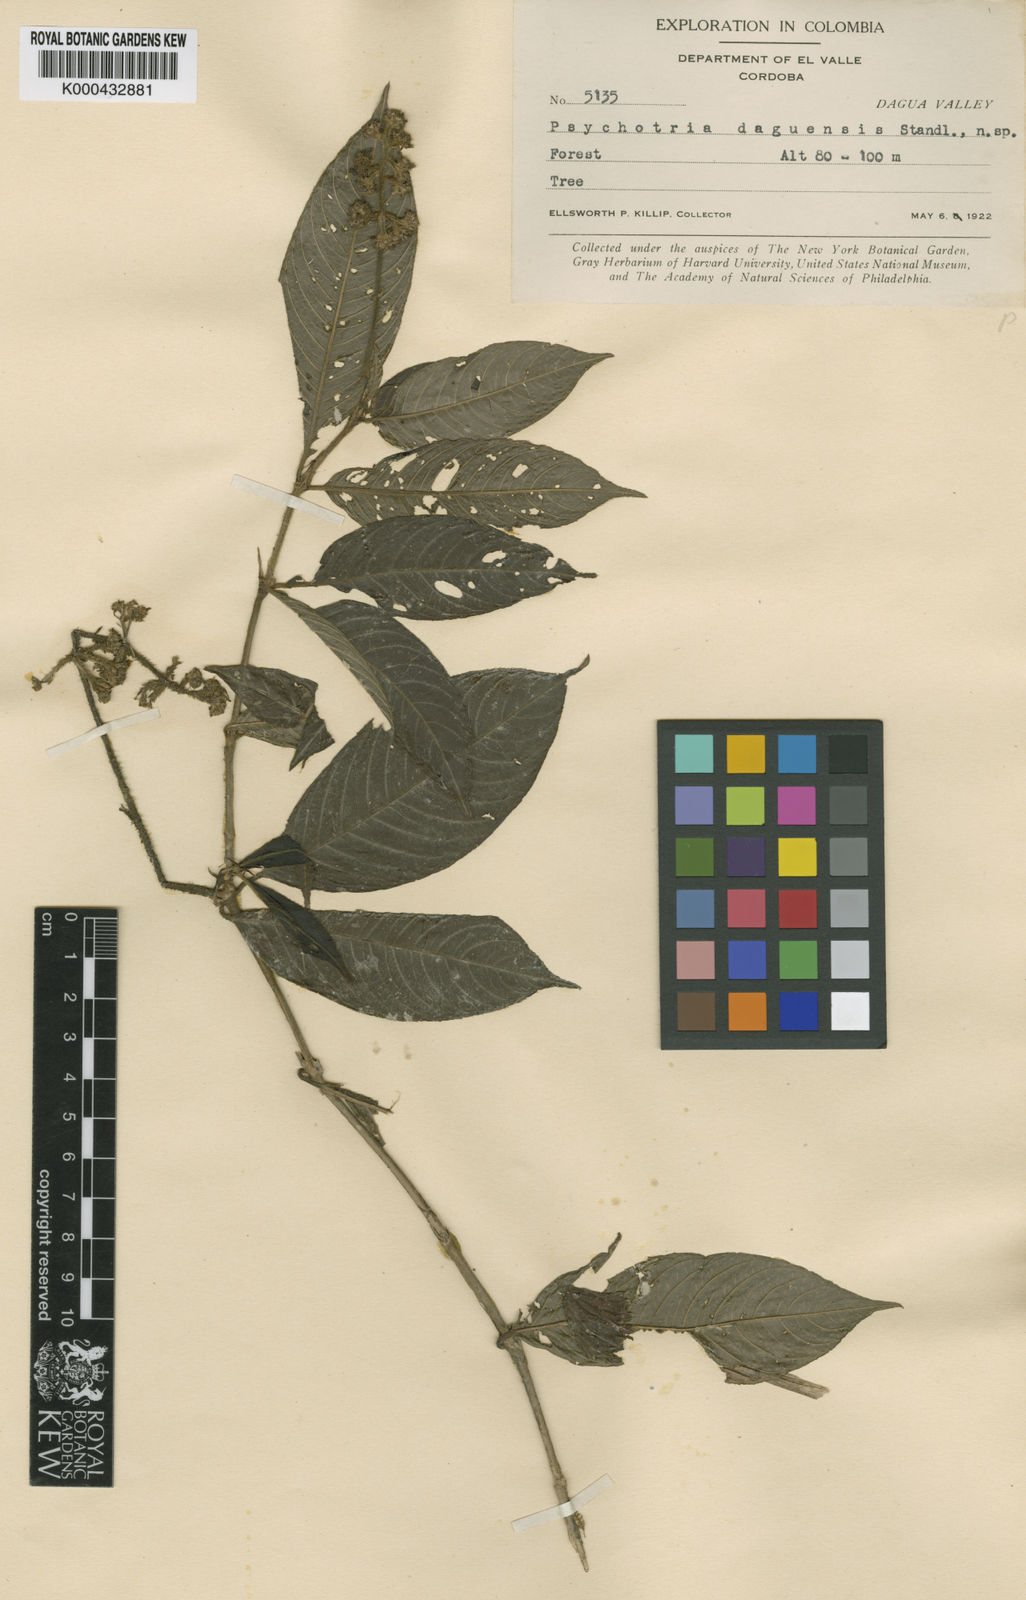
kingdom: Plantae
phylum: Tracheophyta
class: Magnoliopsida
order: Gentianales
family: Rubiaceae
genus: Palicourea
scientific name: Palicourea pilosa
